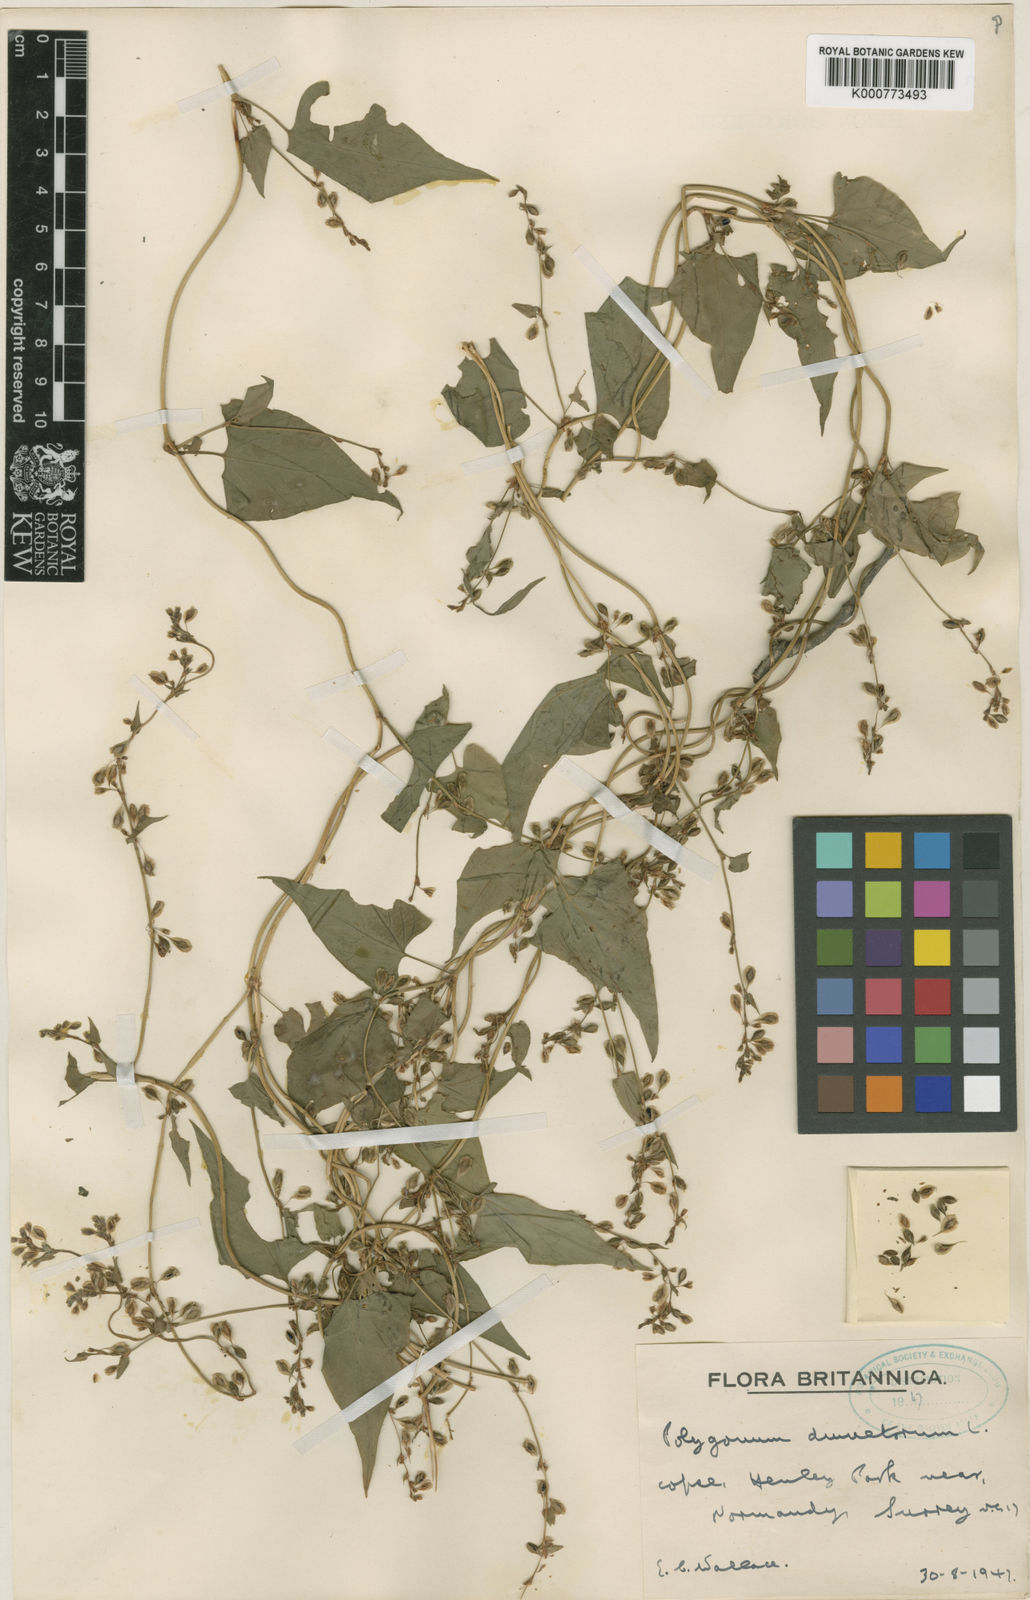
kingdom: Plantae
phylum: Tracheophyta
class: Magnoliopsida
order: Caryophyllales
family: Polygonaceae
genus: Fallopia
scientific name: Fallopia dumetorum
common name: Copse-bindweed
